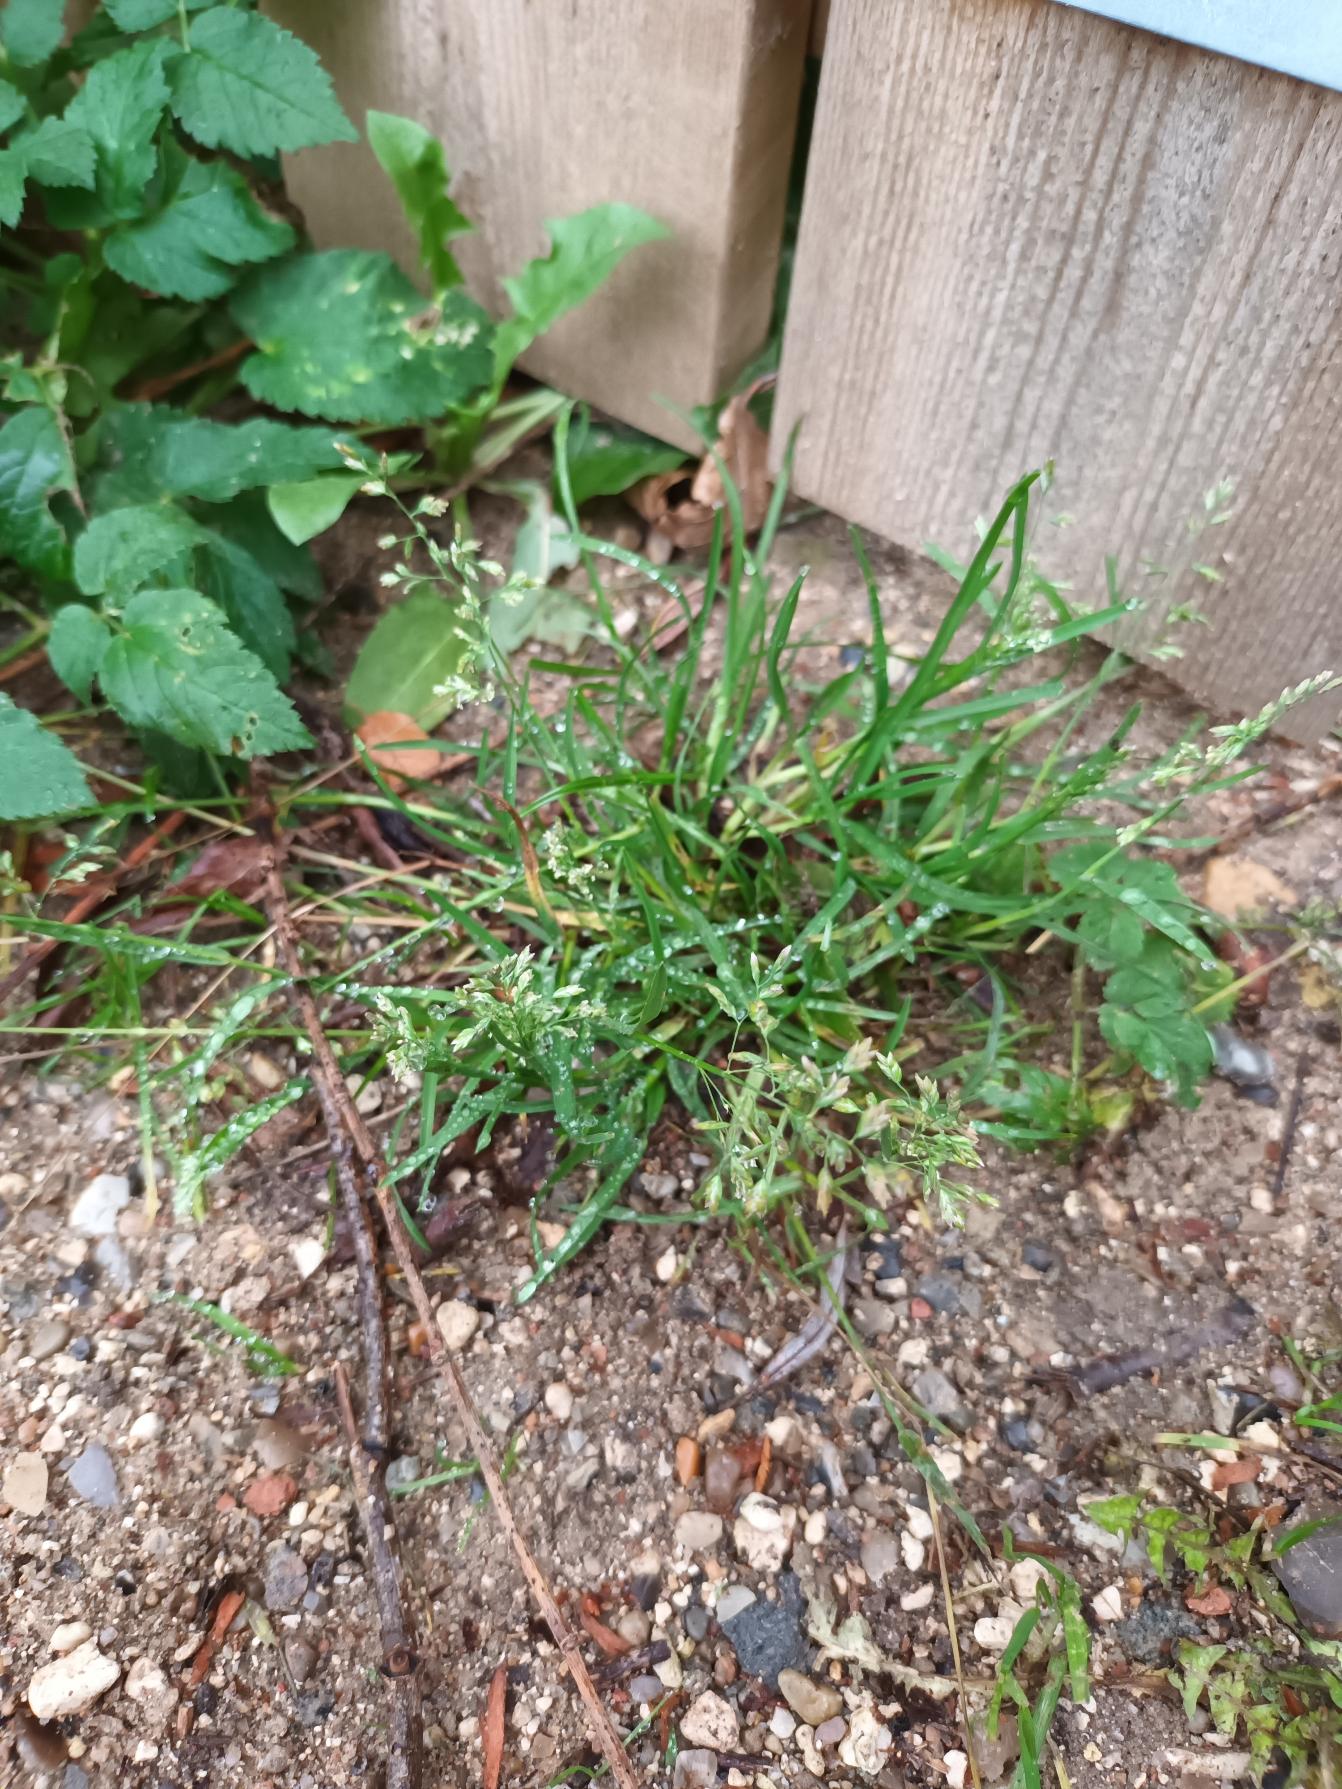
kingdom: Plantae
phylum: Tracheophyta
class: Liliopsida
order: Poales
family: Poaceae
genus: Poa
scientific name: Poa annua
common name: Enårig rapgræs
